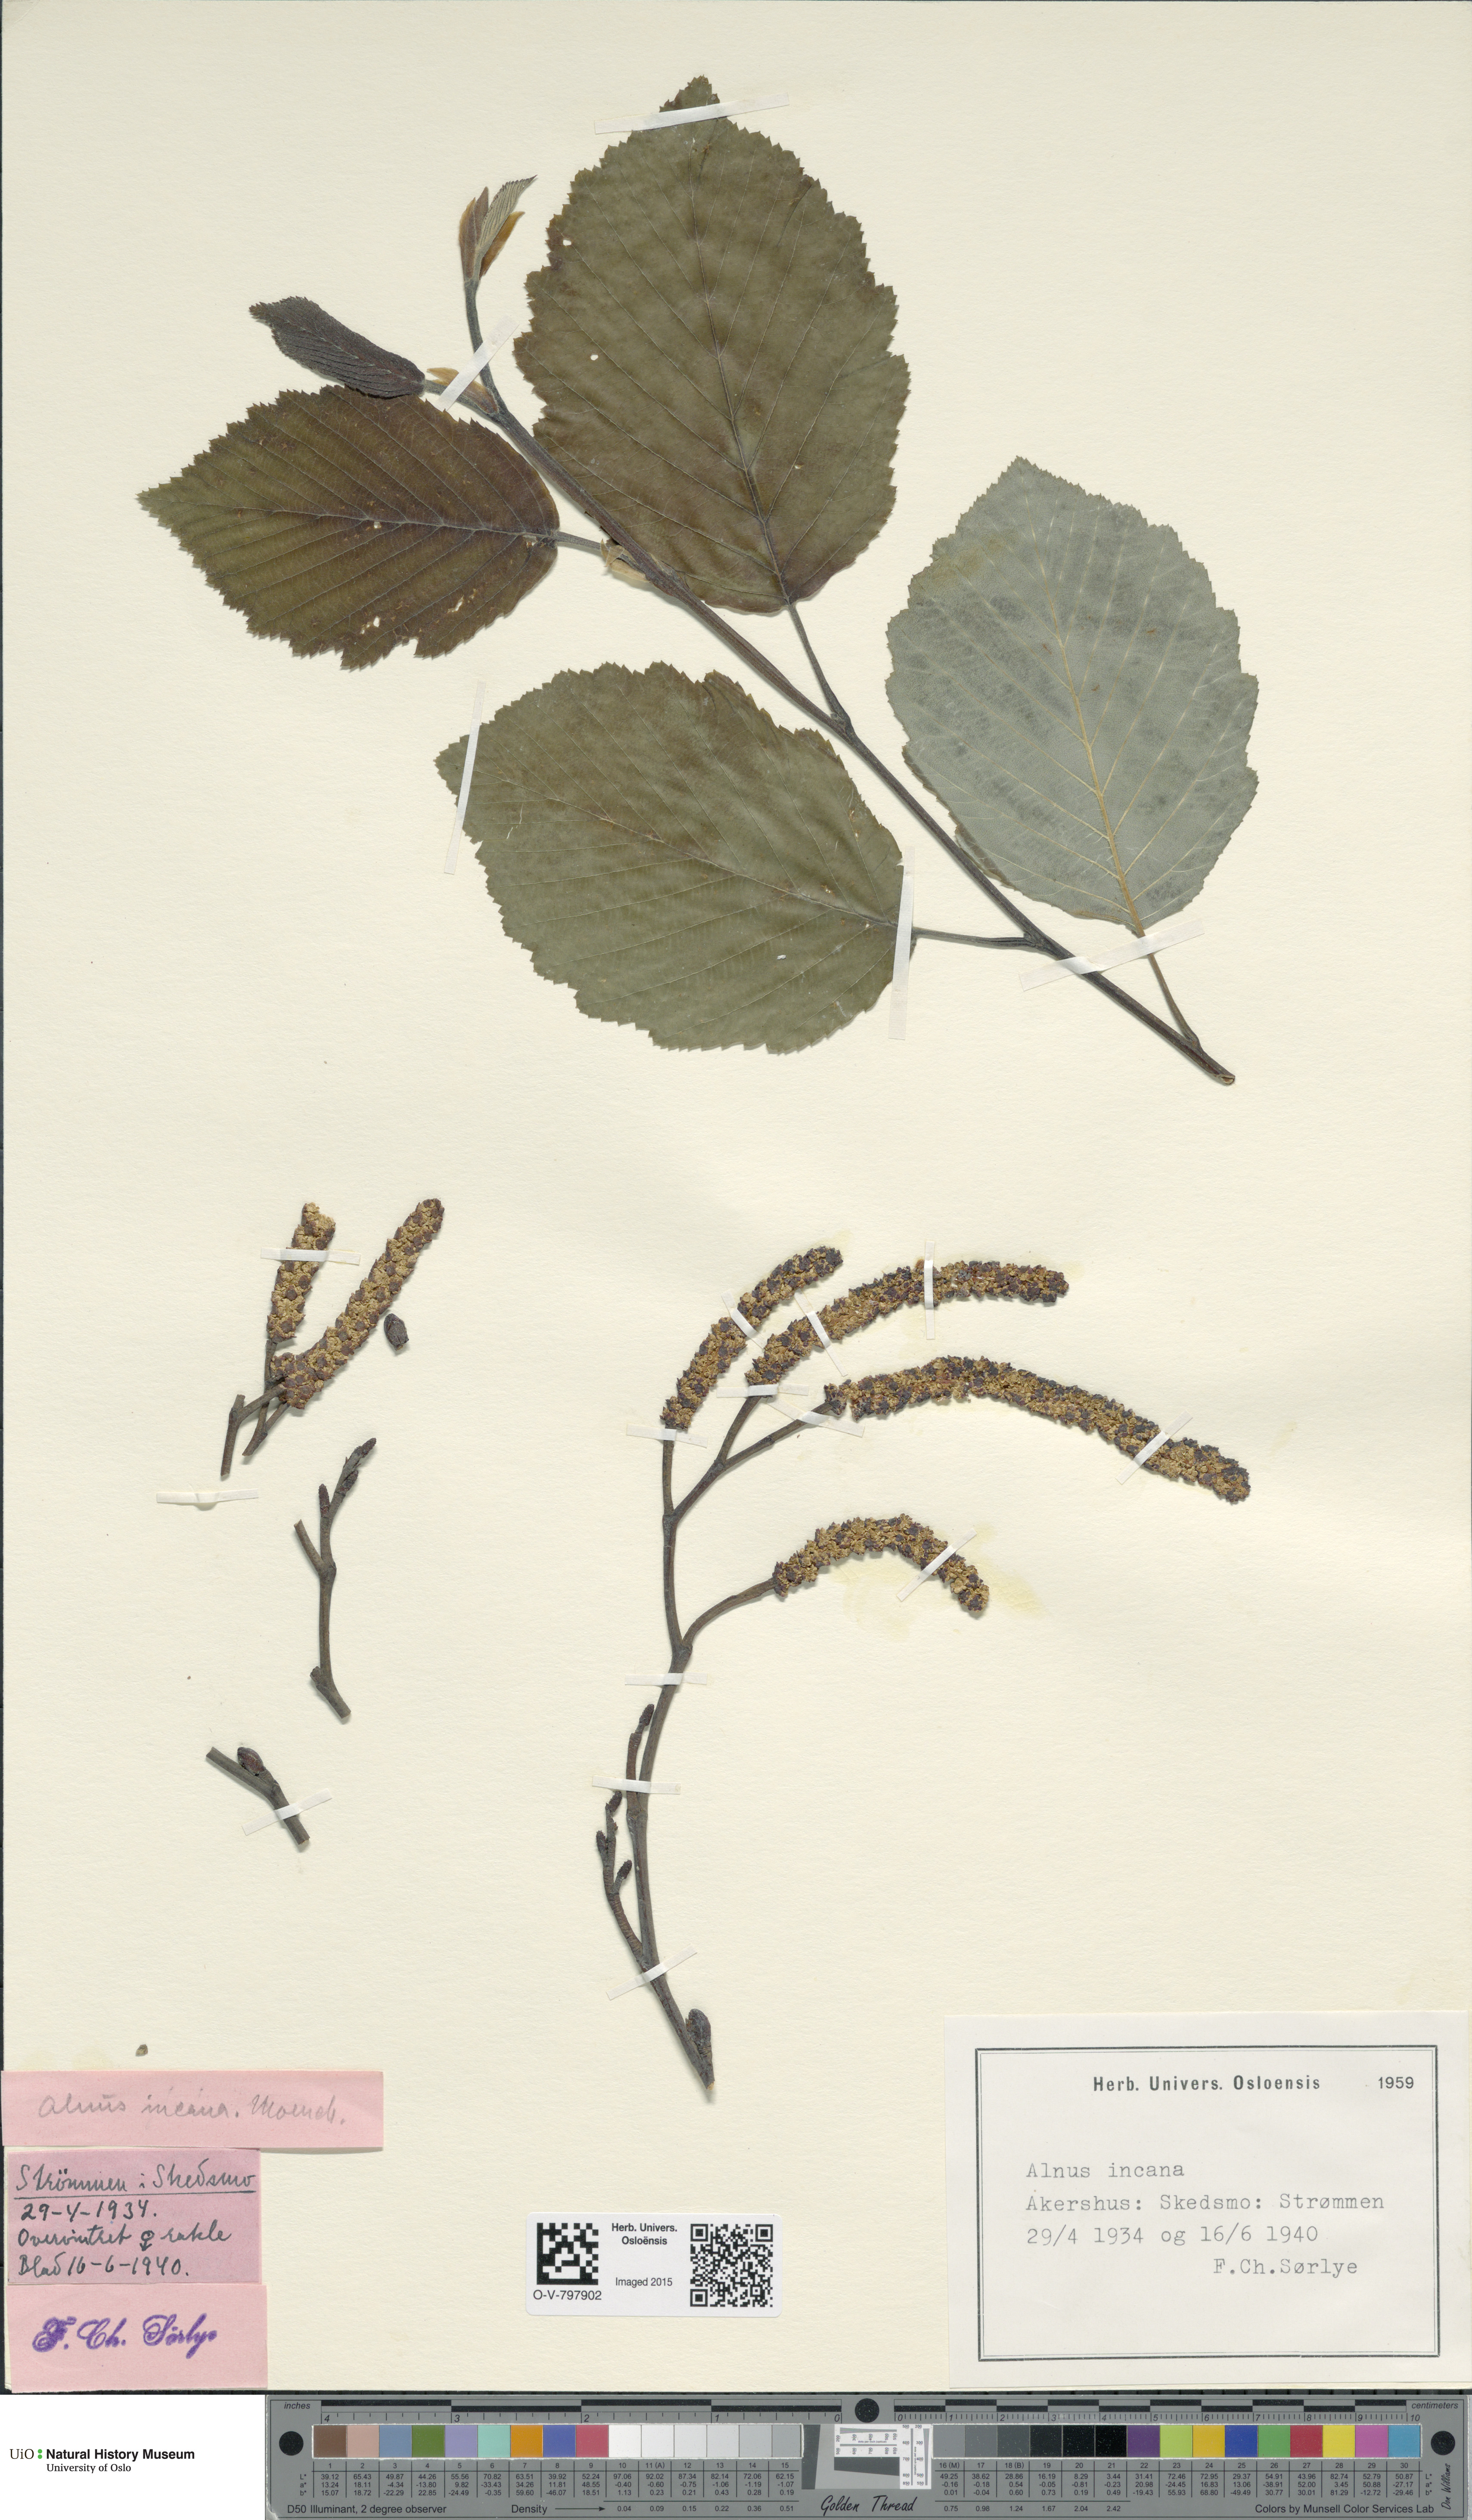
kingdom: Plantae
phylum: Tracheophyta
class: Magnoliopsida
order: Fagales
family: Betulaceae
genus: Alnus
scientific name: Alnus incana
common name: Grey alder
